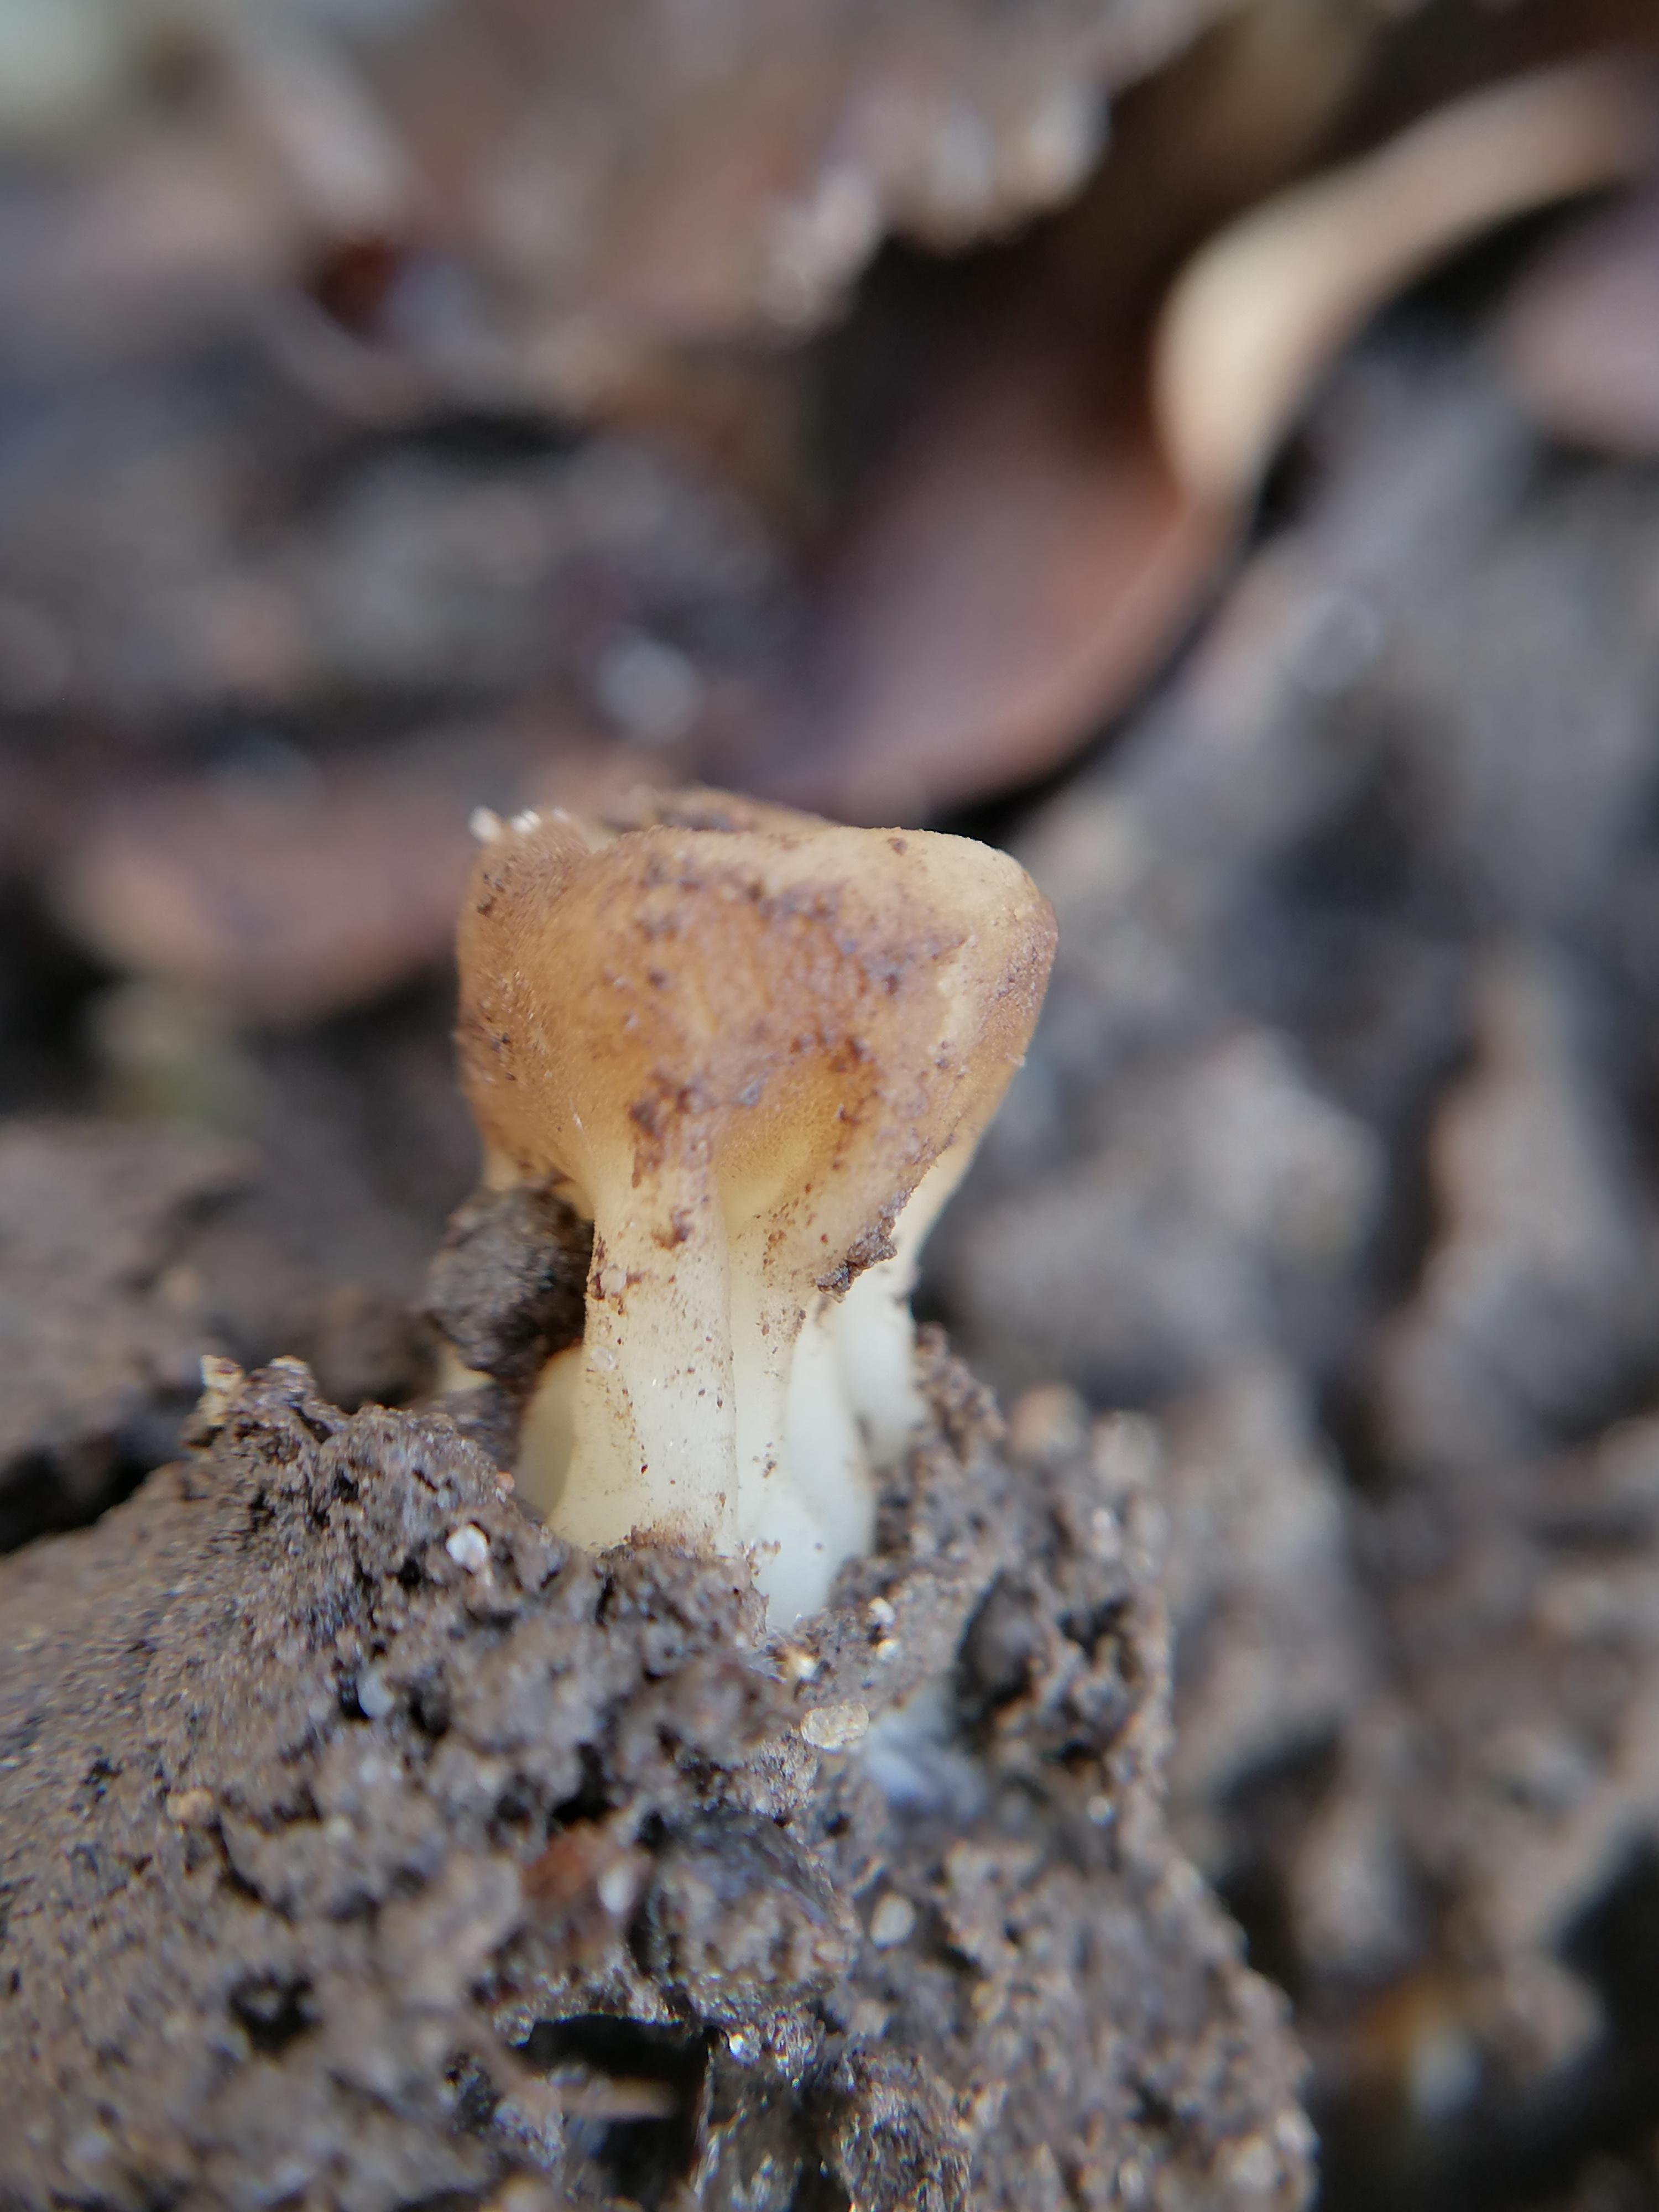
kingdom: Fungi
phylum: Ascomycota
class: Pezizomycetes
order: Pezizales
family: Helvellaceae
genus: Helvella
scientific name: Helvella acetabulum
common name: pokal-foldhat
